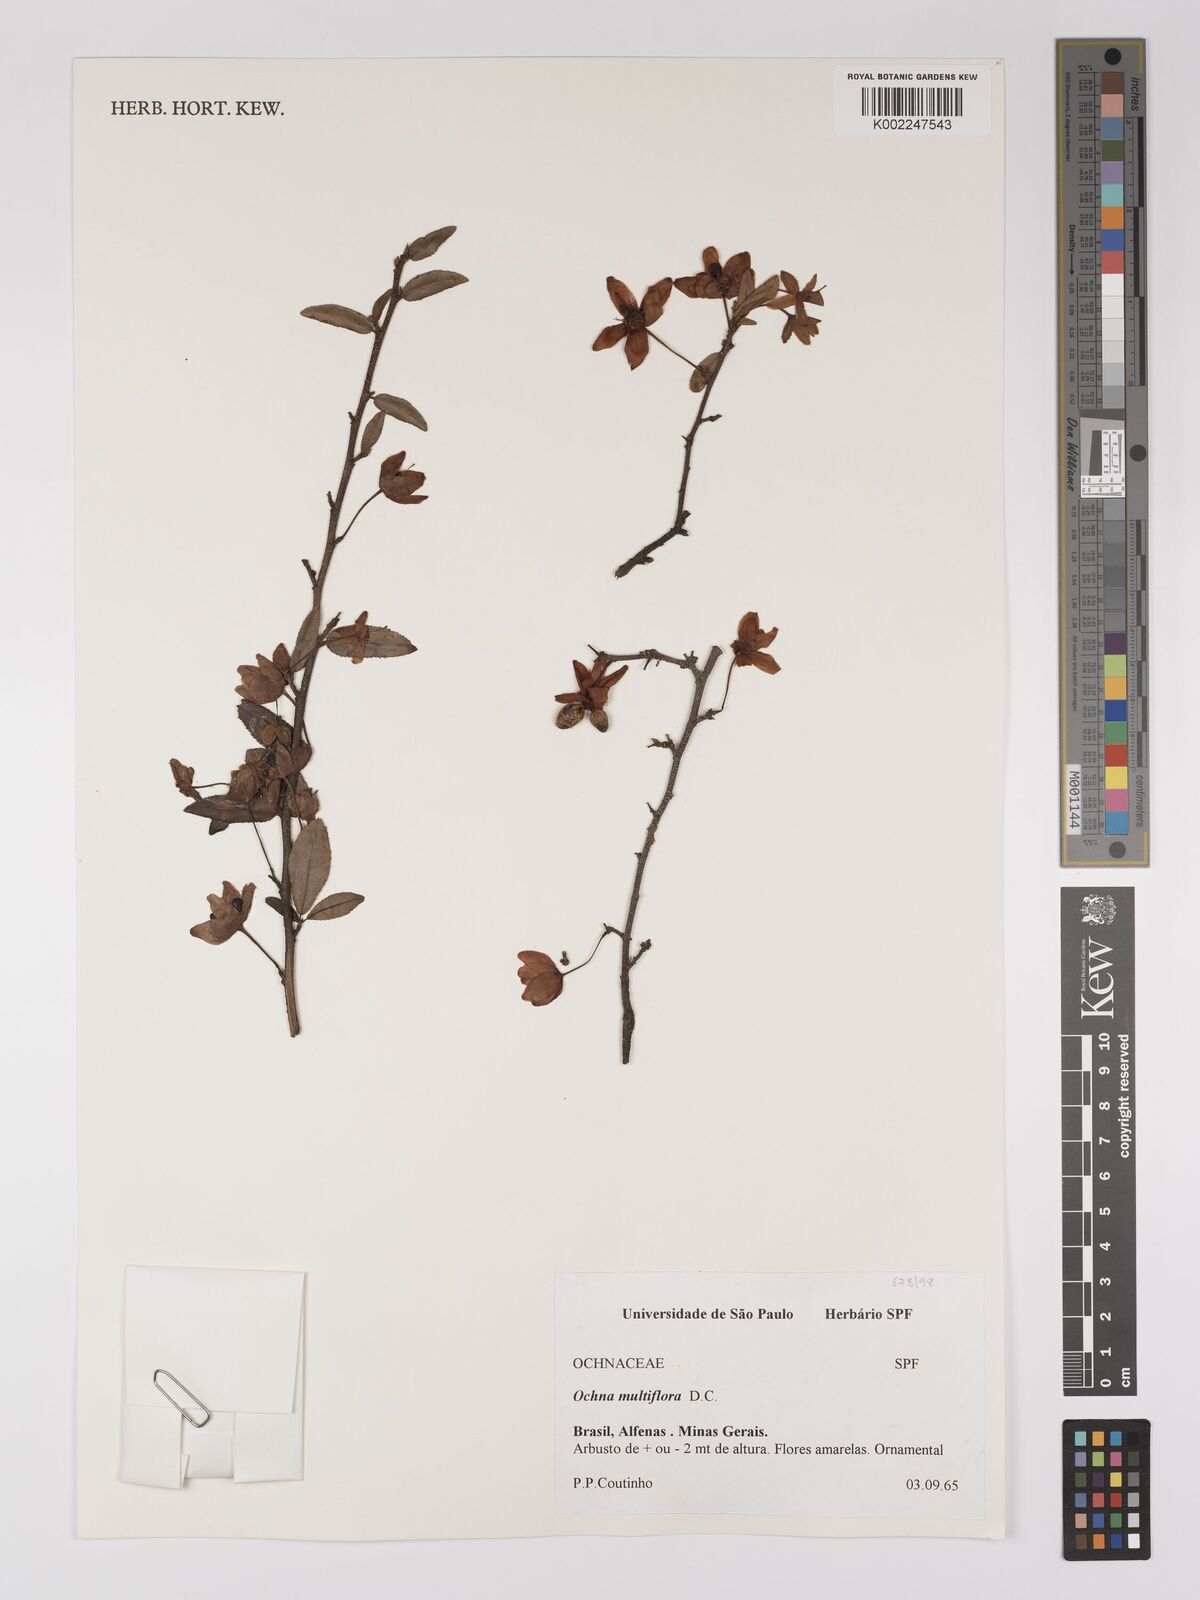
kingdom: Plantae
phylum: Tracheophyta
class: Magnoliopsida
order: Malpighiales
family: Ochnaceae
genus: Ochna
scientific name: Ochna
